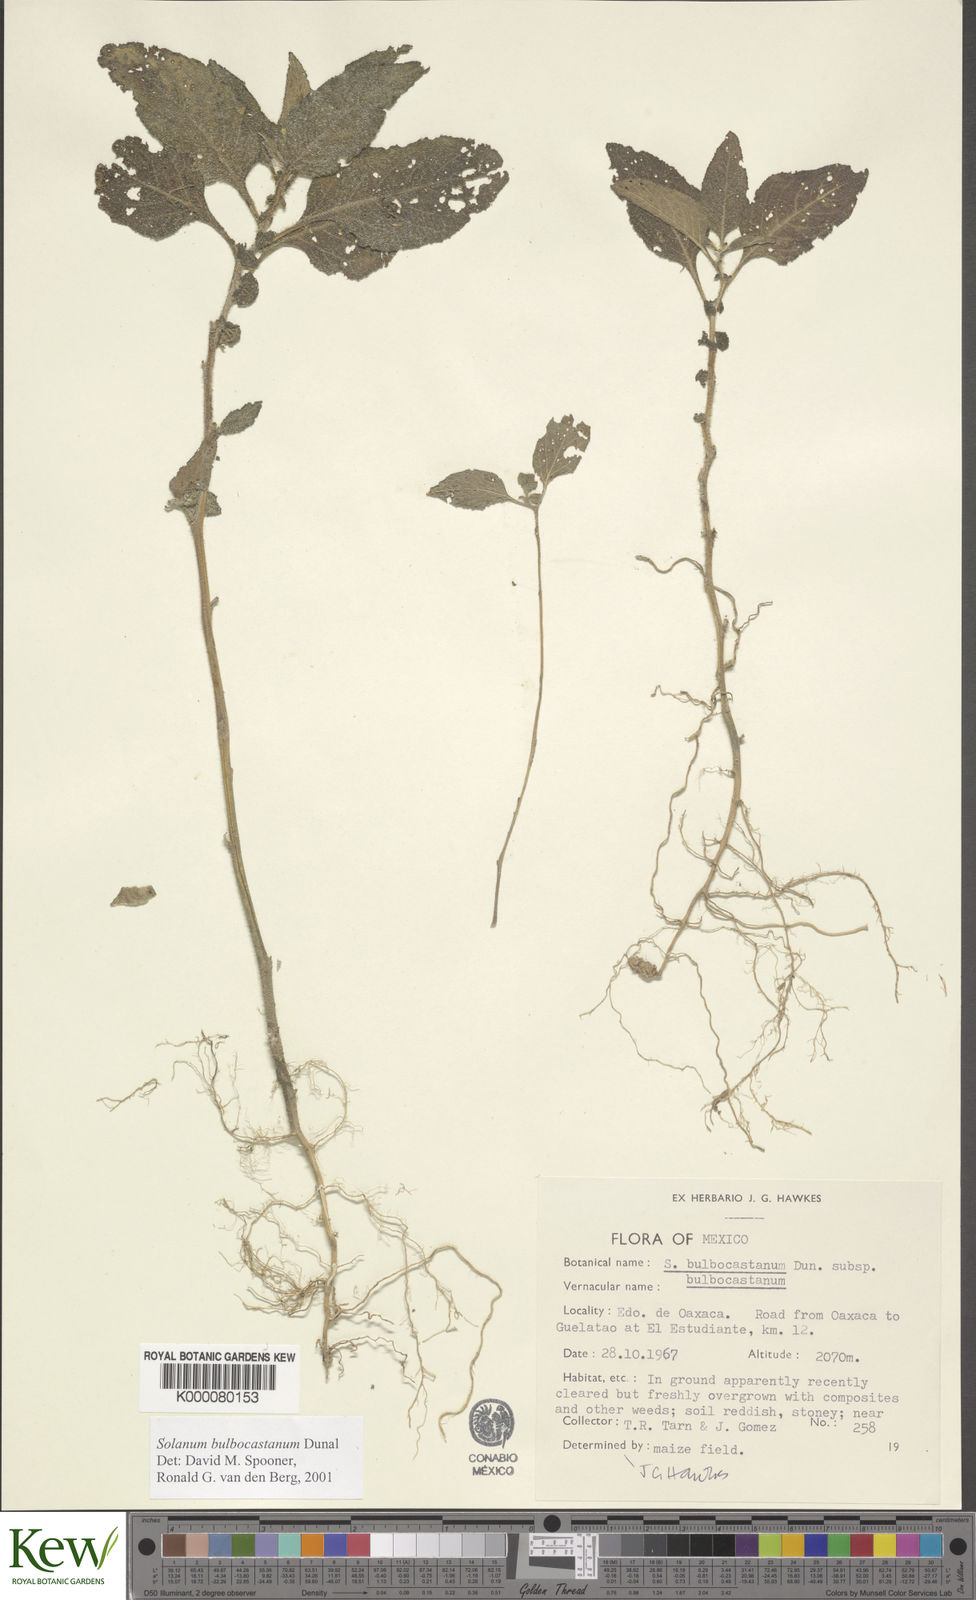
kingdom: Plantae
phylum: Tracheophyta
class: Magnoliopsida
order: Solanales
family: Solanaceae
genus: Solanum
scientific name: Solanum bulbocastanum
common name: Ornamental nightshade
